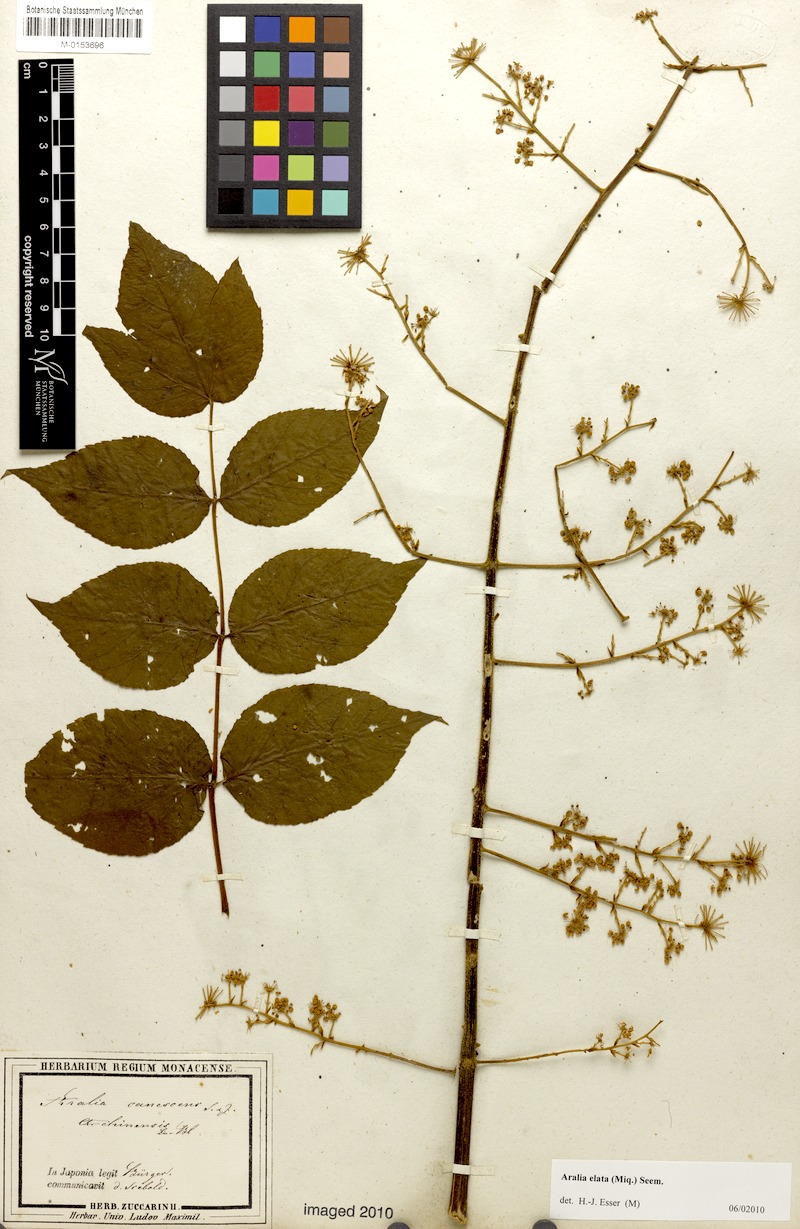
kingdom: Plantae
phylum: Tracheophyta
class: Magnoliopsida
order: Apiales
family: Araliaceae
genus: Aralia
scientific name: Aralia elata
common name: Japanese angelica-tree
